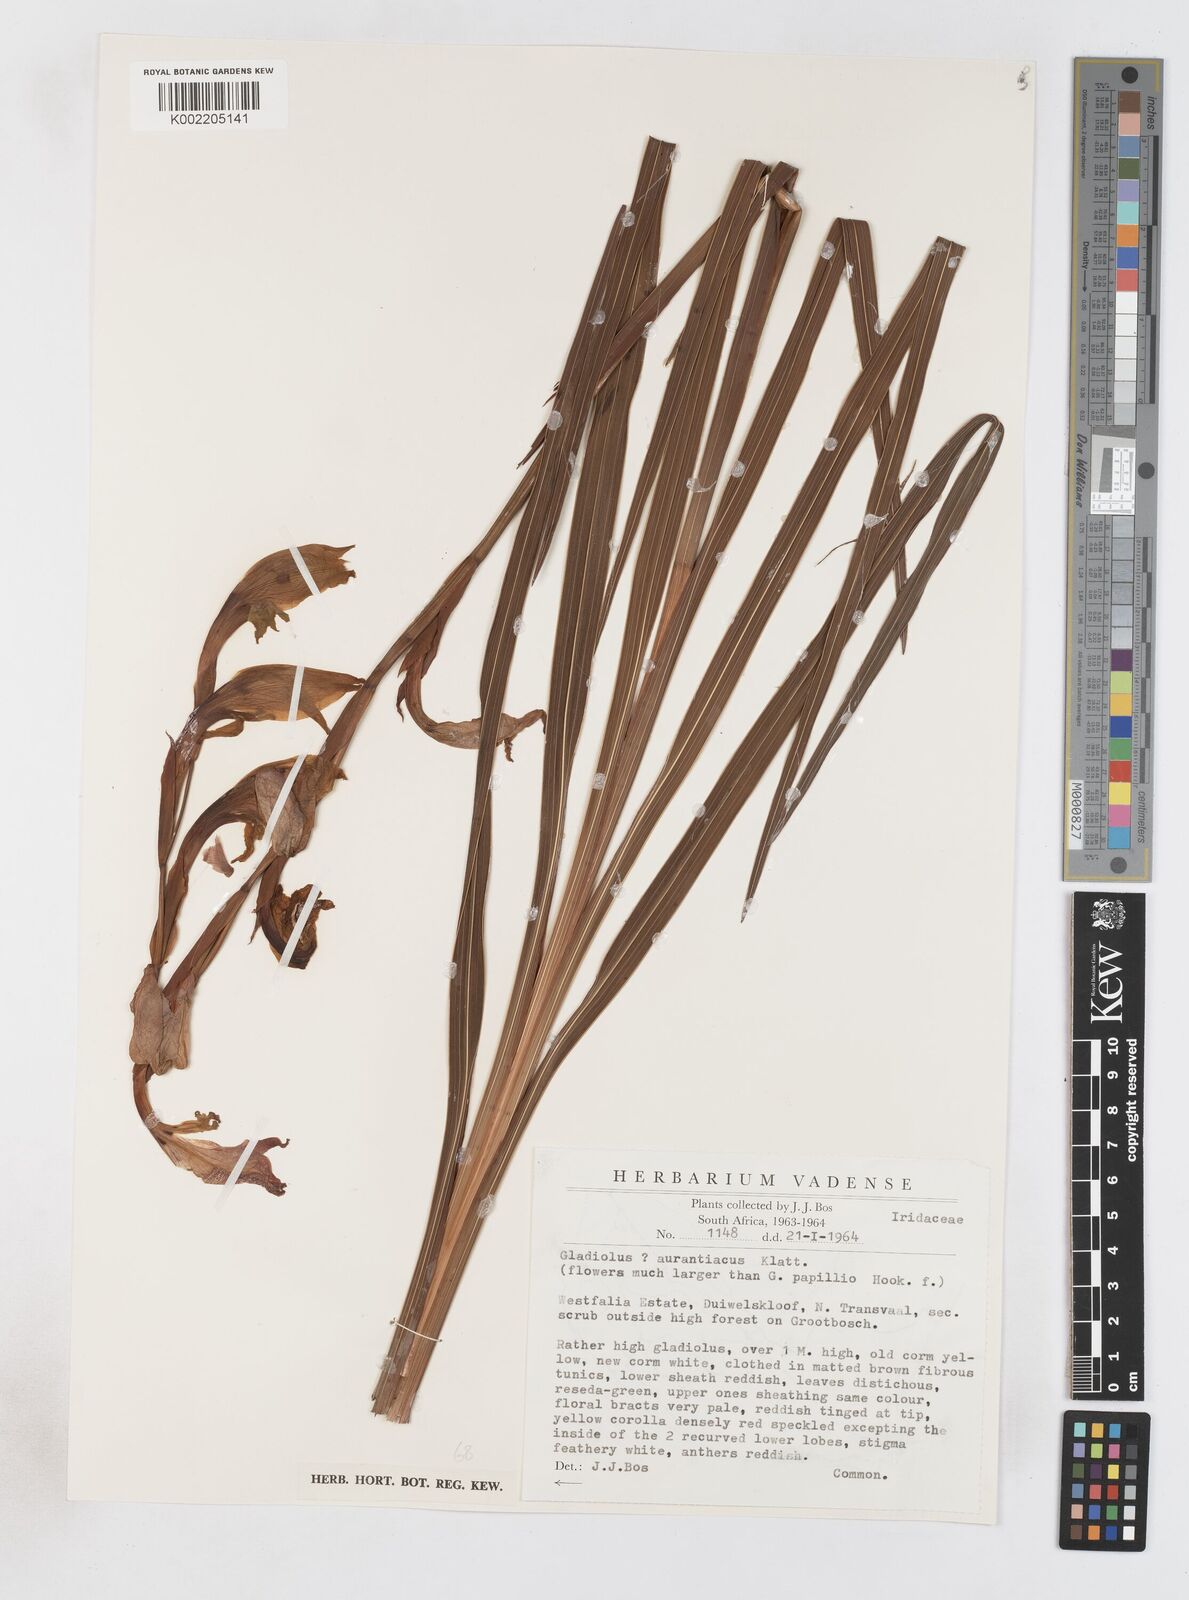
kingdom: Plantae
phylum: Tracheophyta
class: Liliopsida
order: Asparagales
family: Iridaceae
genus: Gladiolus
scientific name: Gladiolus dalenii
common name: Cornflag
